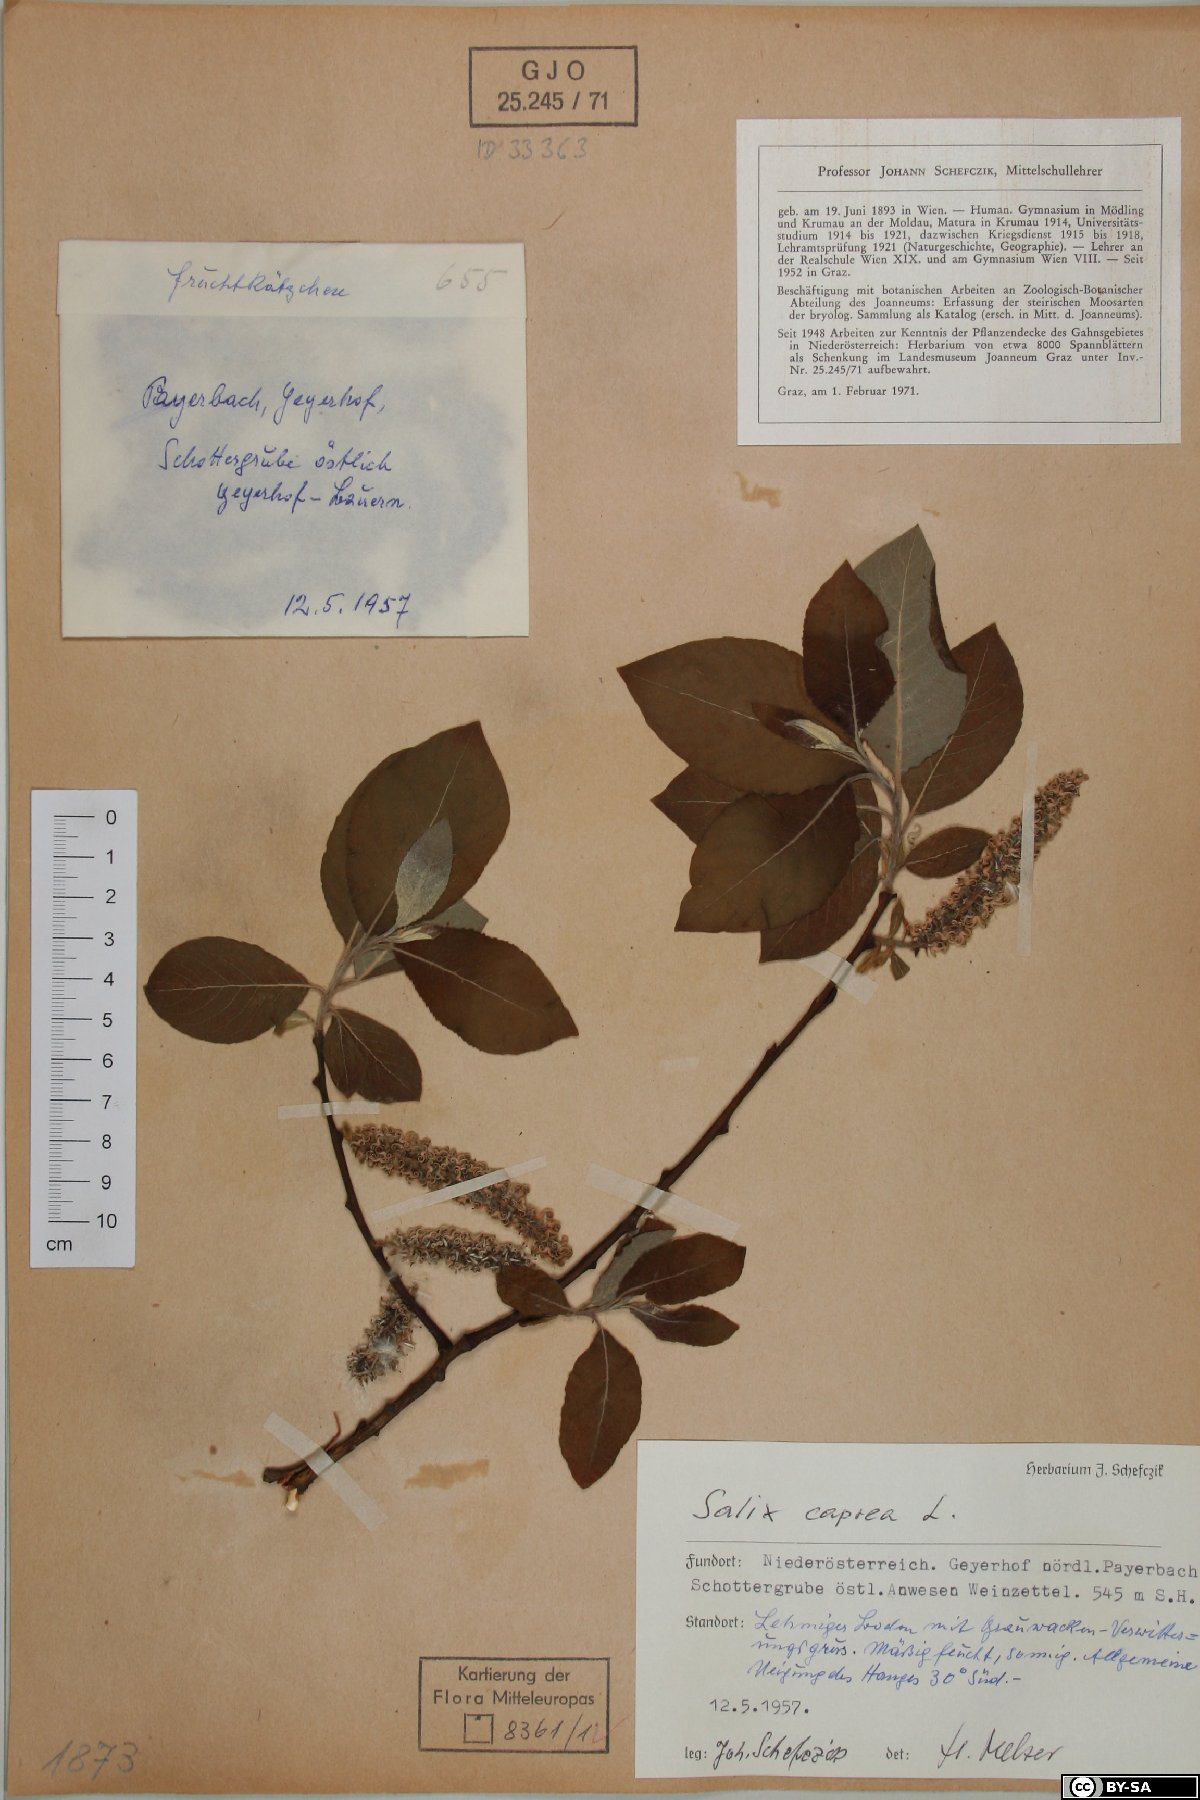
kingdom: Plantae
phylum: Tracheophyta
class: Magnoliopsida
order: Malpighiales
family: Salicaceae
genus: Salix
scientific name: Salix caprea
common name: Goat willow
